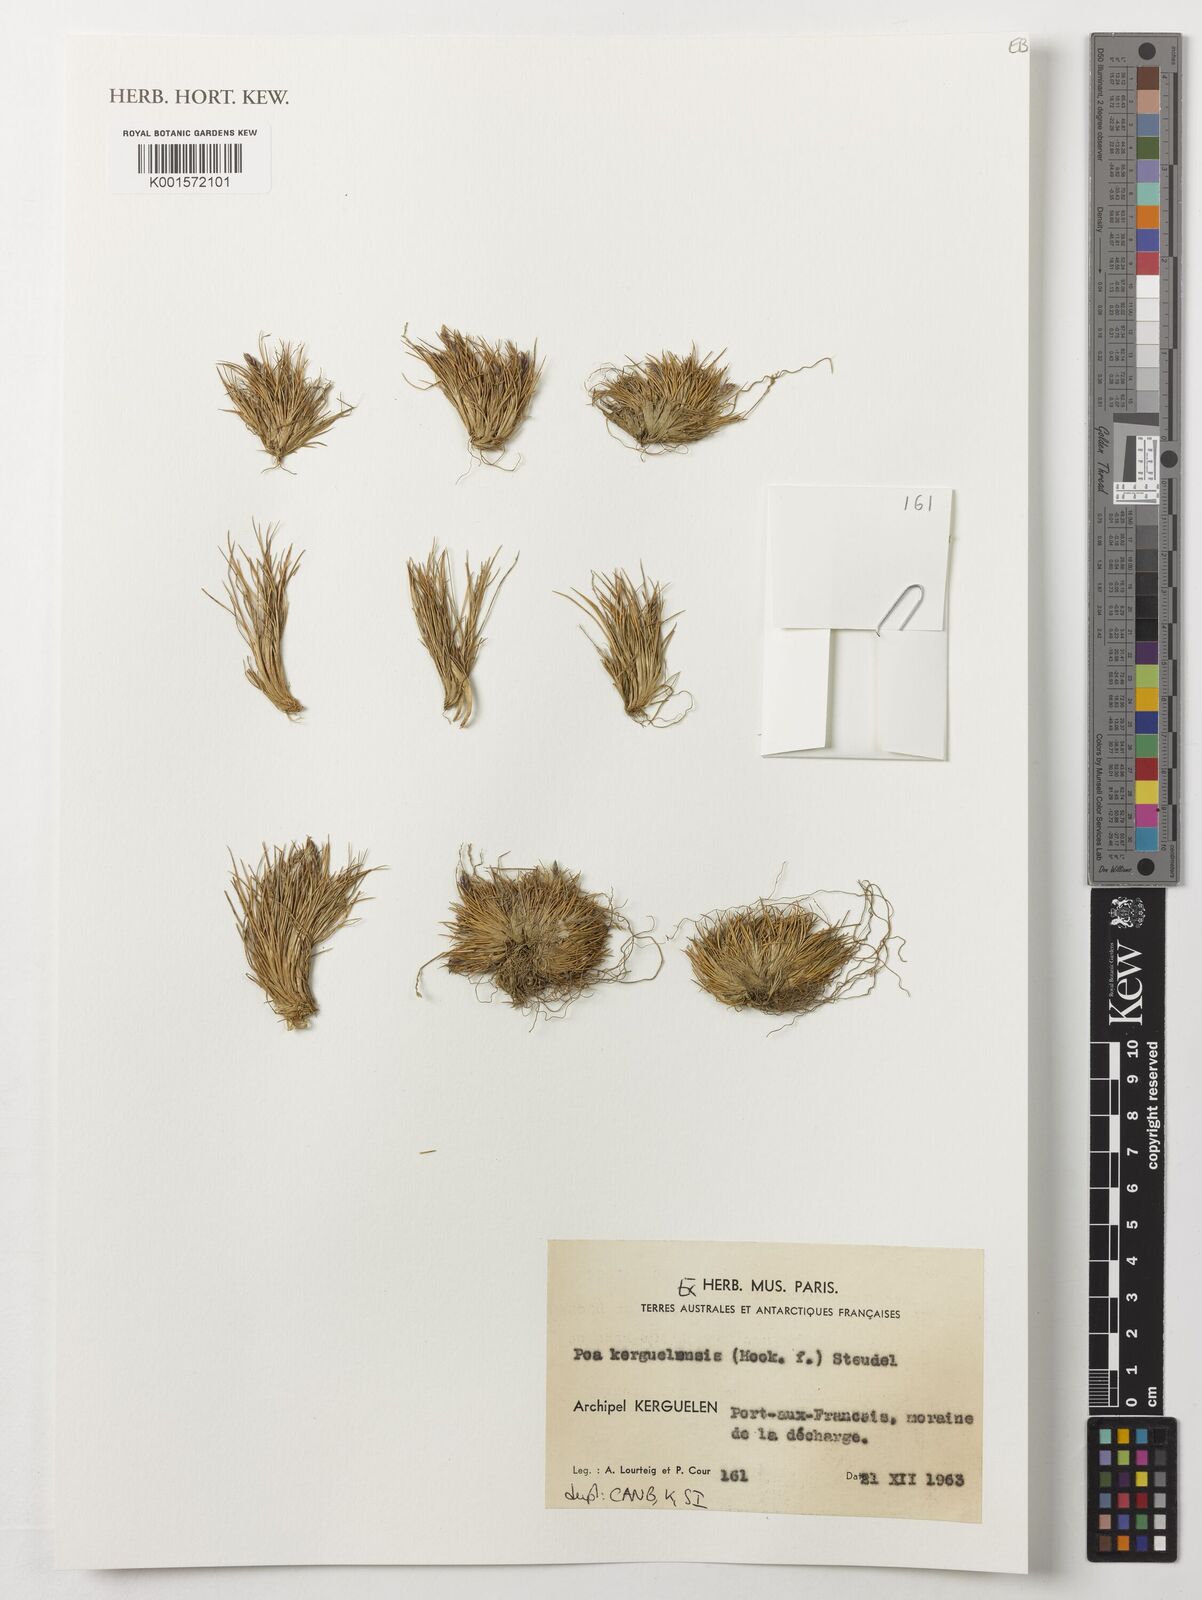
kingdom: Plantae
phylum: Tracheophyta
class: Liliopsida
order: Poales
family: Poaceae
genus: Poa
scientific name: Poa kerguelensis
